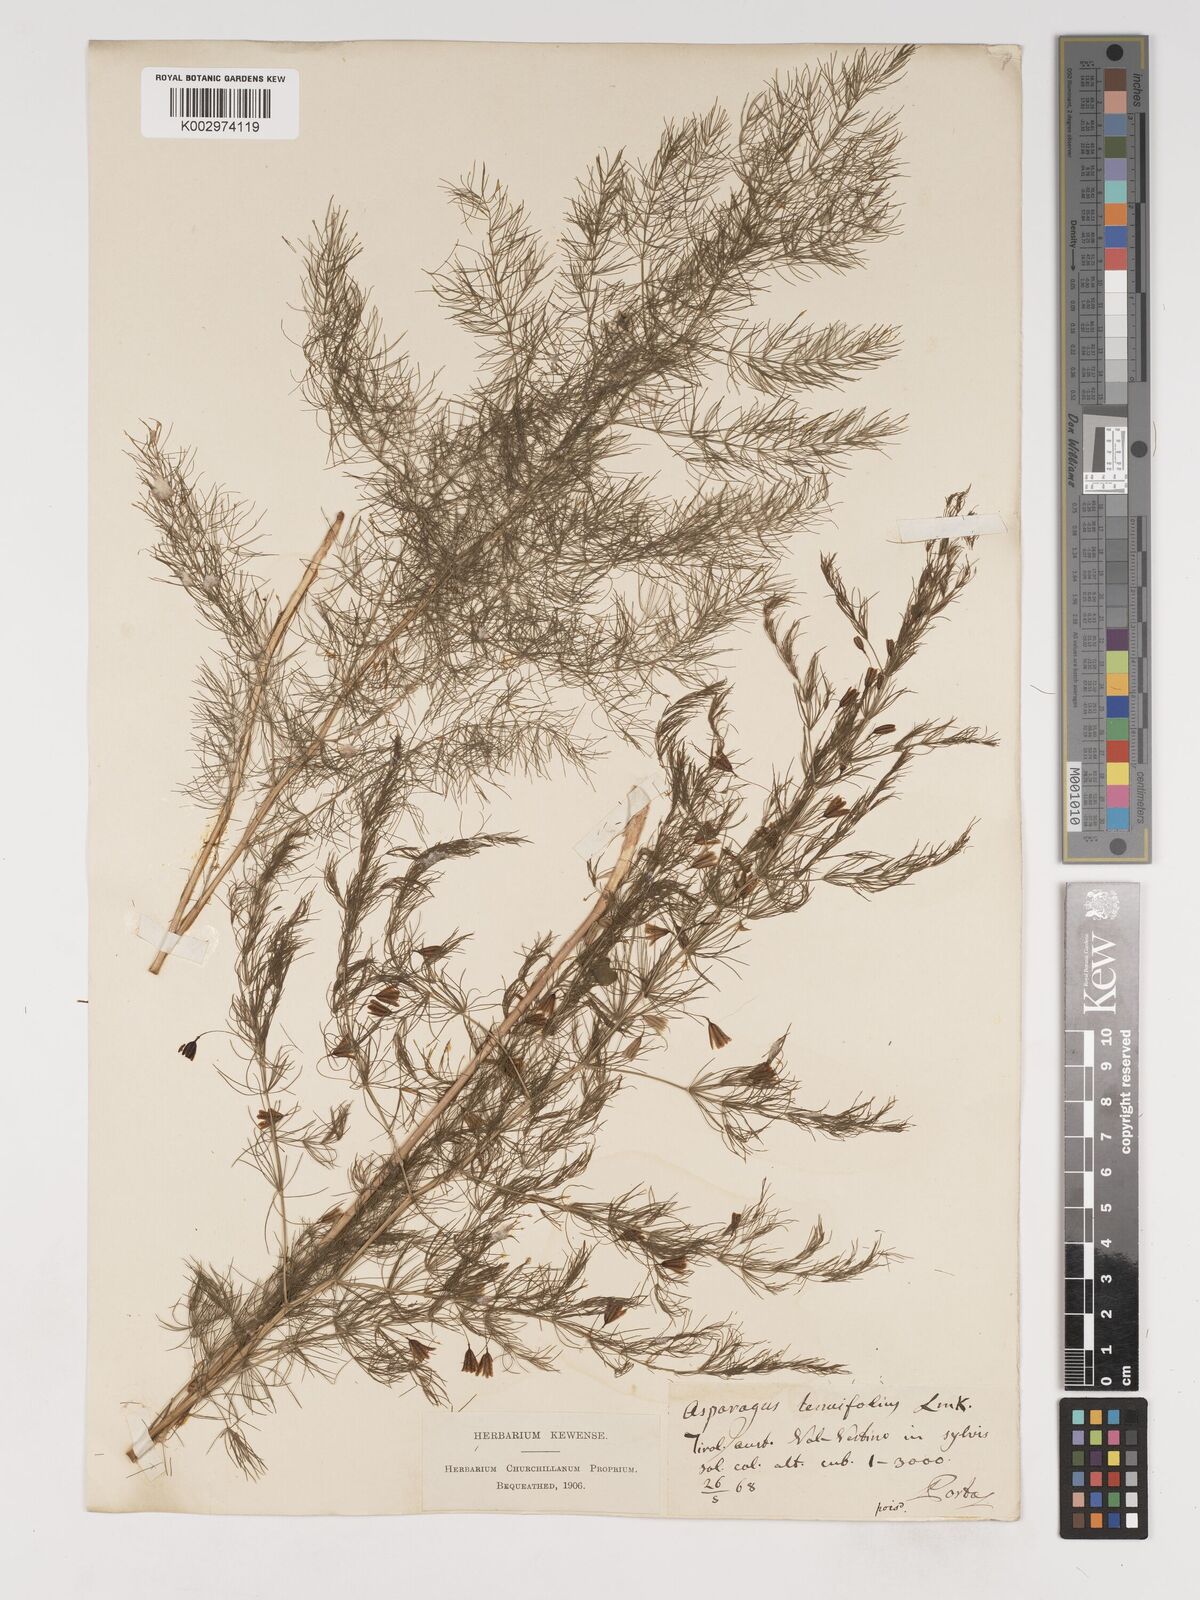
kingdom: Plantae
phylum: Tracheophyta
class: Liliopsida
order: Asparagales
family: Asparagaceae
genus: Asparagus
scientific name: Asparagus tenuifolius
